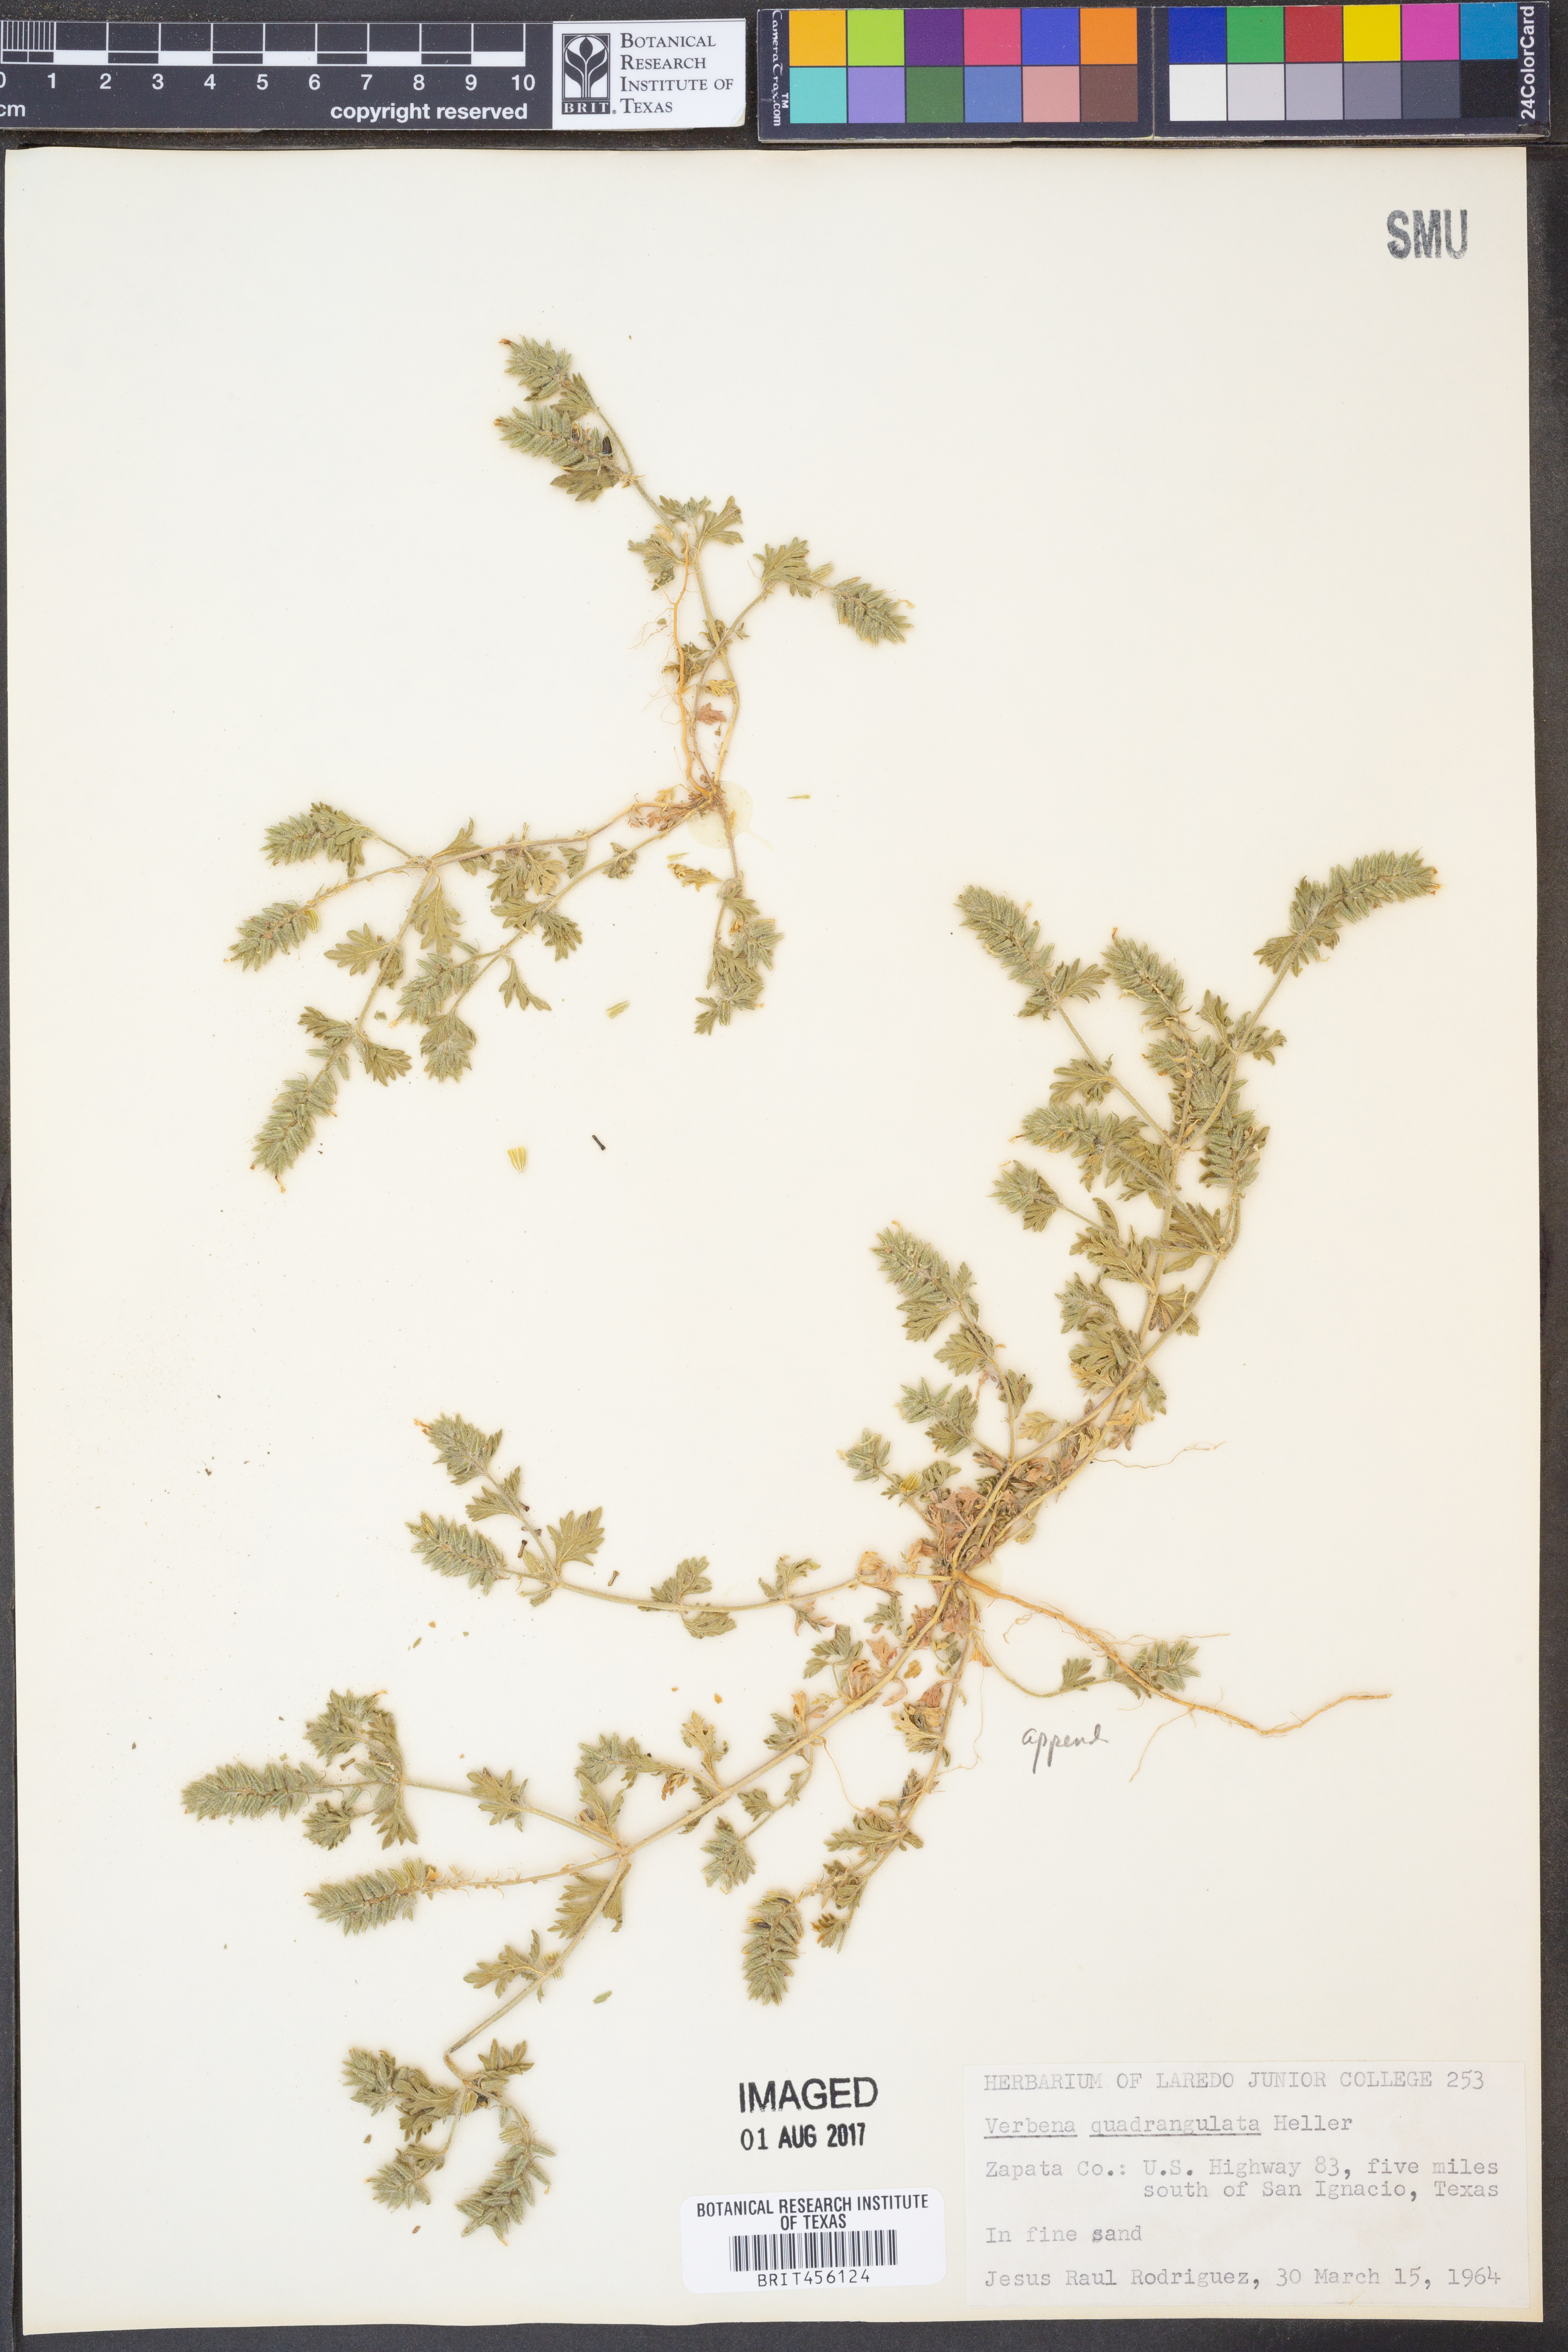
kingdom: Plantae
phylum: Tracheophyta
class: Magnoliopsida
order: Lamiales
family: Verbenaceae
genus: Verbena
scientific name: Verbena quadrangulata
